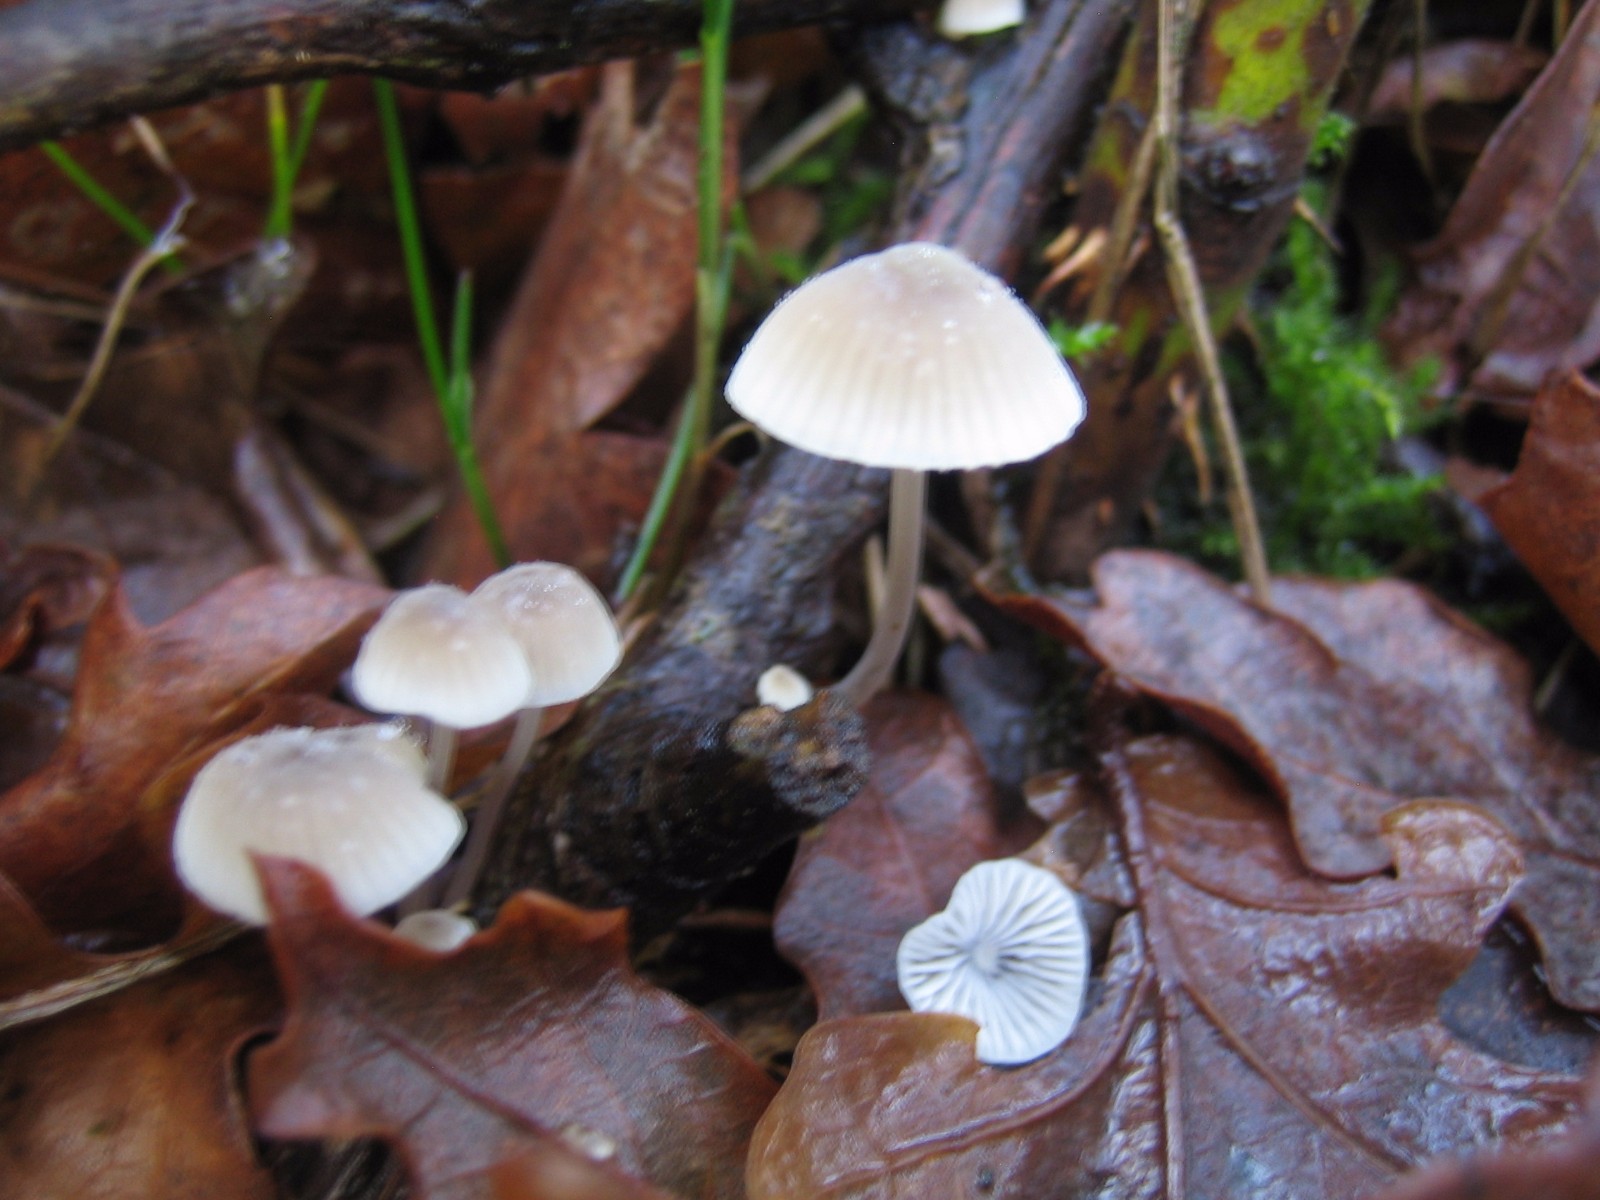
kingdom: Fungi
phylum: Basidiomycota
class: Agaricomycetes
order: Agaricales
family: Mycenaceae
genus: Mycena
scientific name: Mycena arcangeliana
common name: oliven-huesvamp
